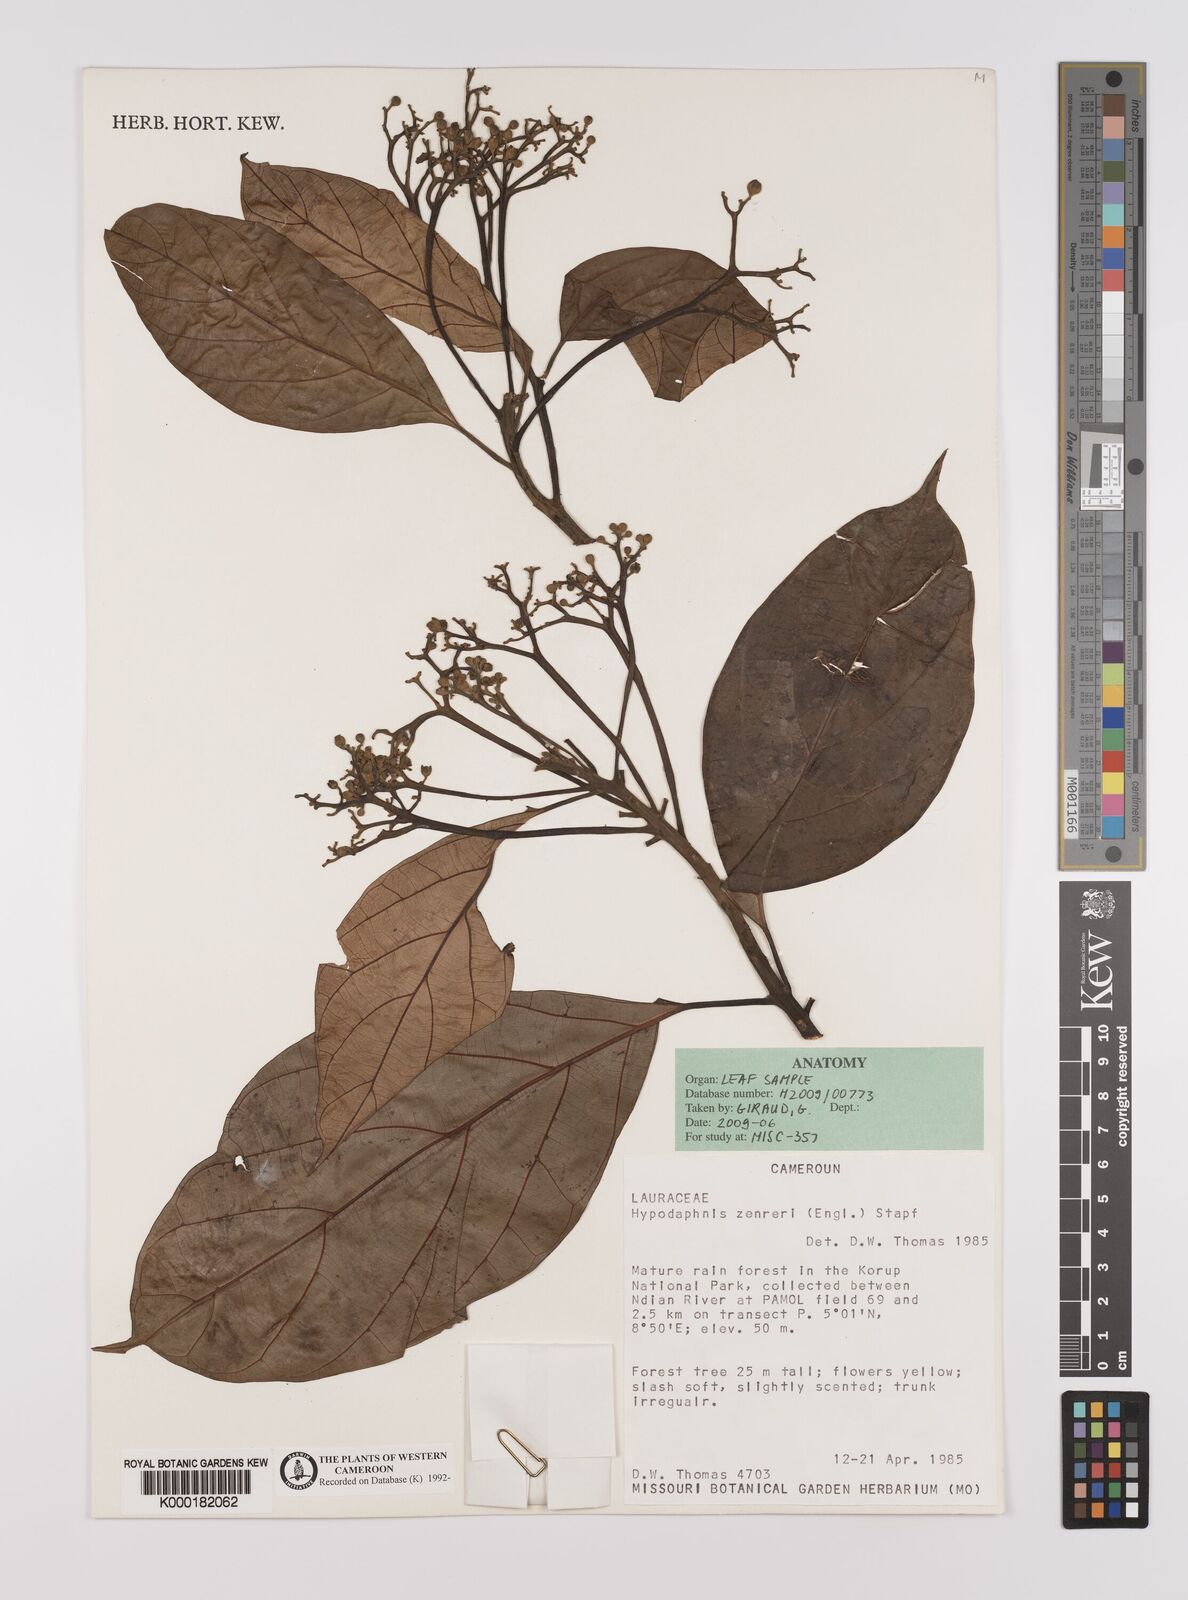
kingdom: Plantae
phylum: Tracheophyta
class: Magnoliopsida
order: Laurales
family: Lauraceae
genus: Hypodaphnis
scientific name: Hypodaphnis zenkeri
